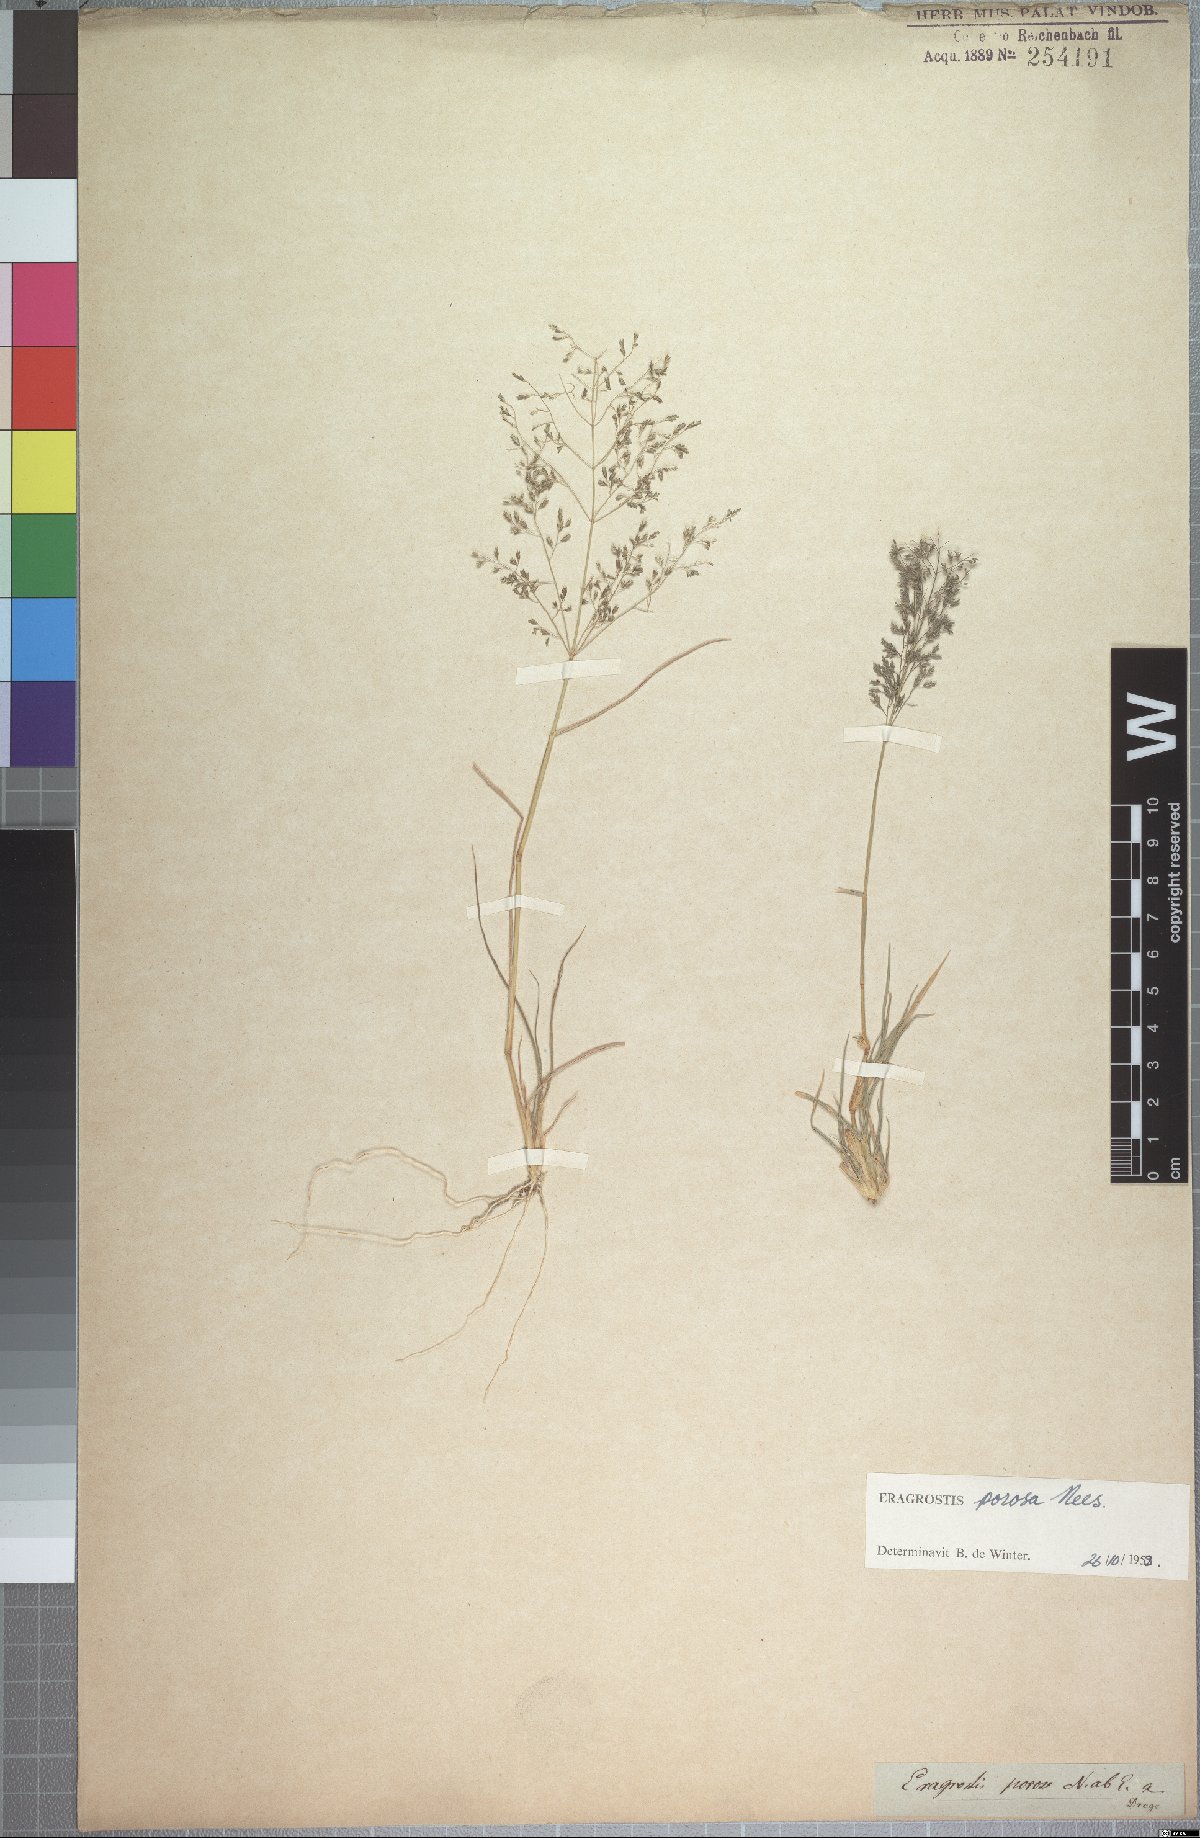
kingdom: Plantae
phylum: Tracheophyta
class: Liliopsida
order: Poales
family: Poaceae
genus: Eragrostis
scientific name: Eragrostis porosa
